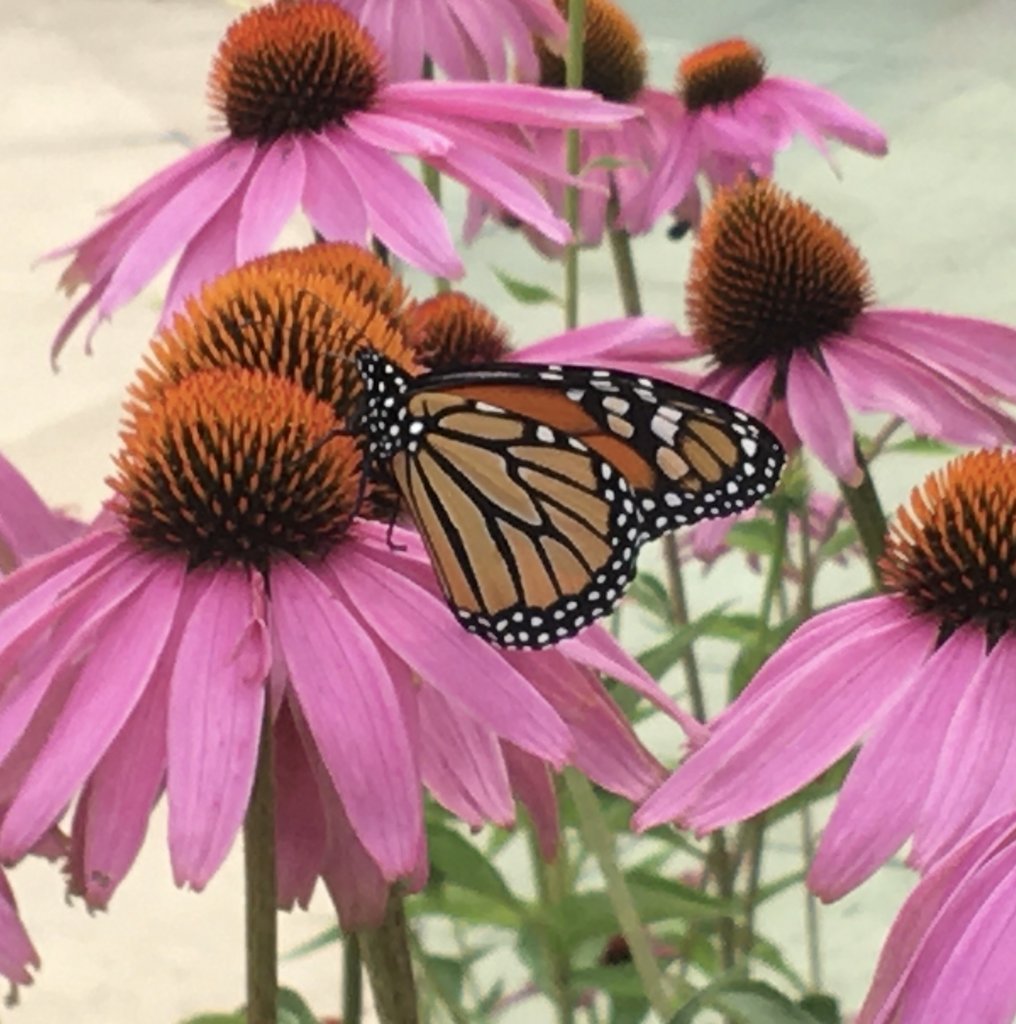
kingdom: Animalia
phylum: Arthropoda
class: Insecta
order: Lepidoptera
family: Nymphalidae
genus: Danaus
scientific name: Danaus plexippus
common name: Monarch
